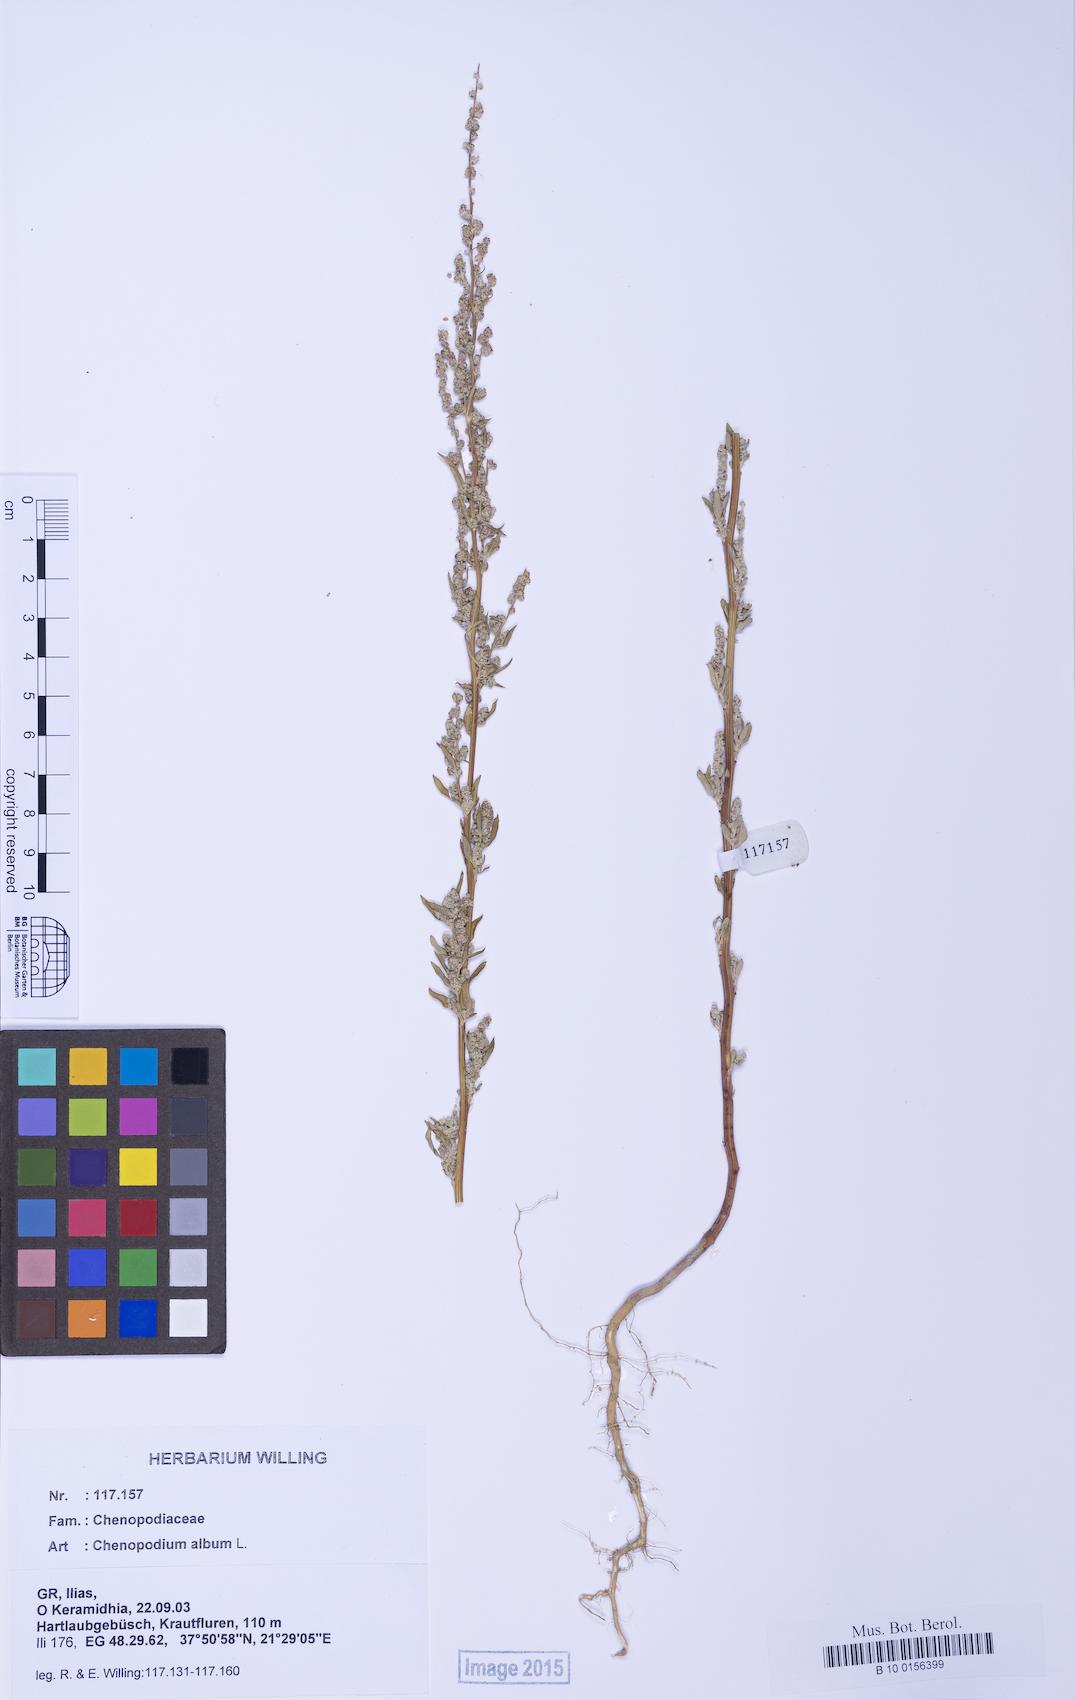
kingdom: Plantae
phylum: Tracheophyta
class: Magnoliopsida
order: Caryophyllales
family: Amaranthaceae
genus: Chenopodium
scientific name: Chenopodium album
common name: Fat-hen
